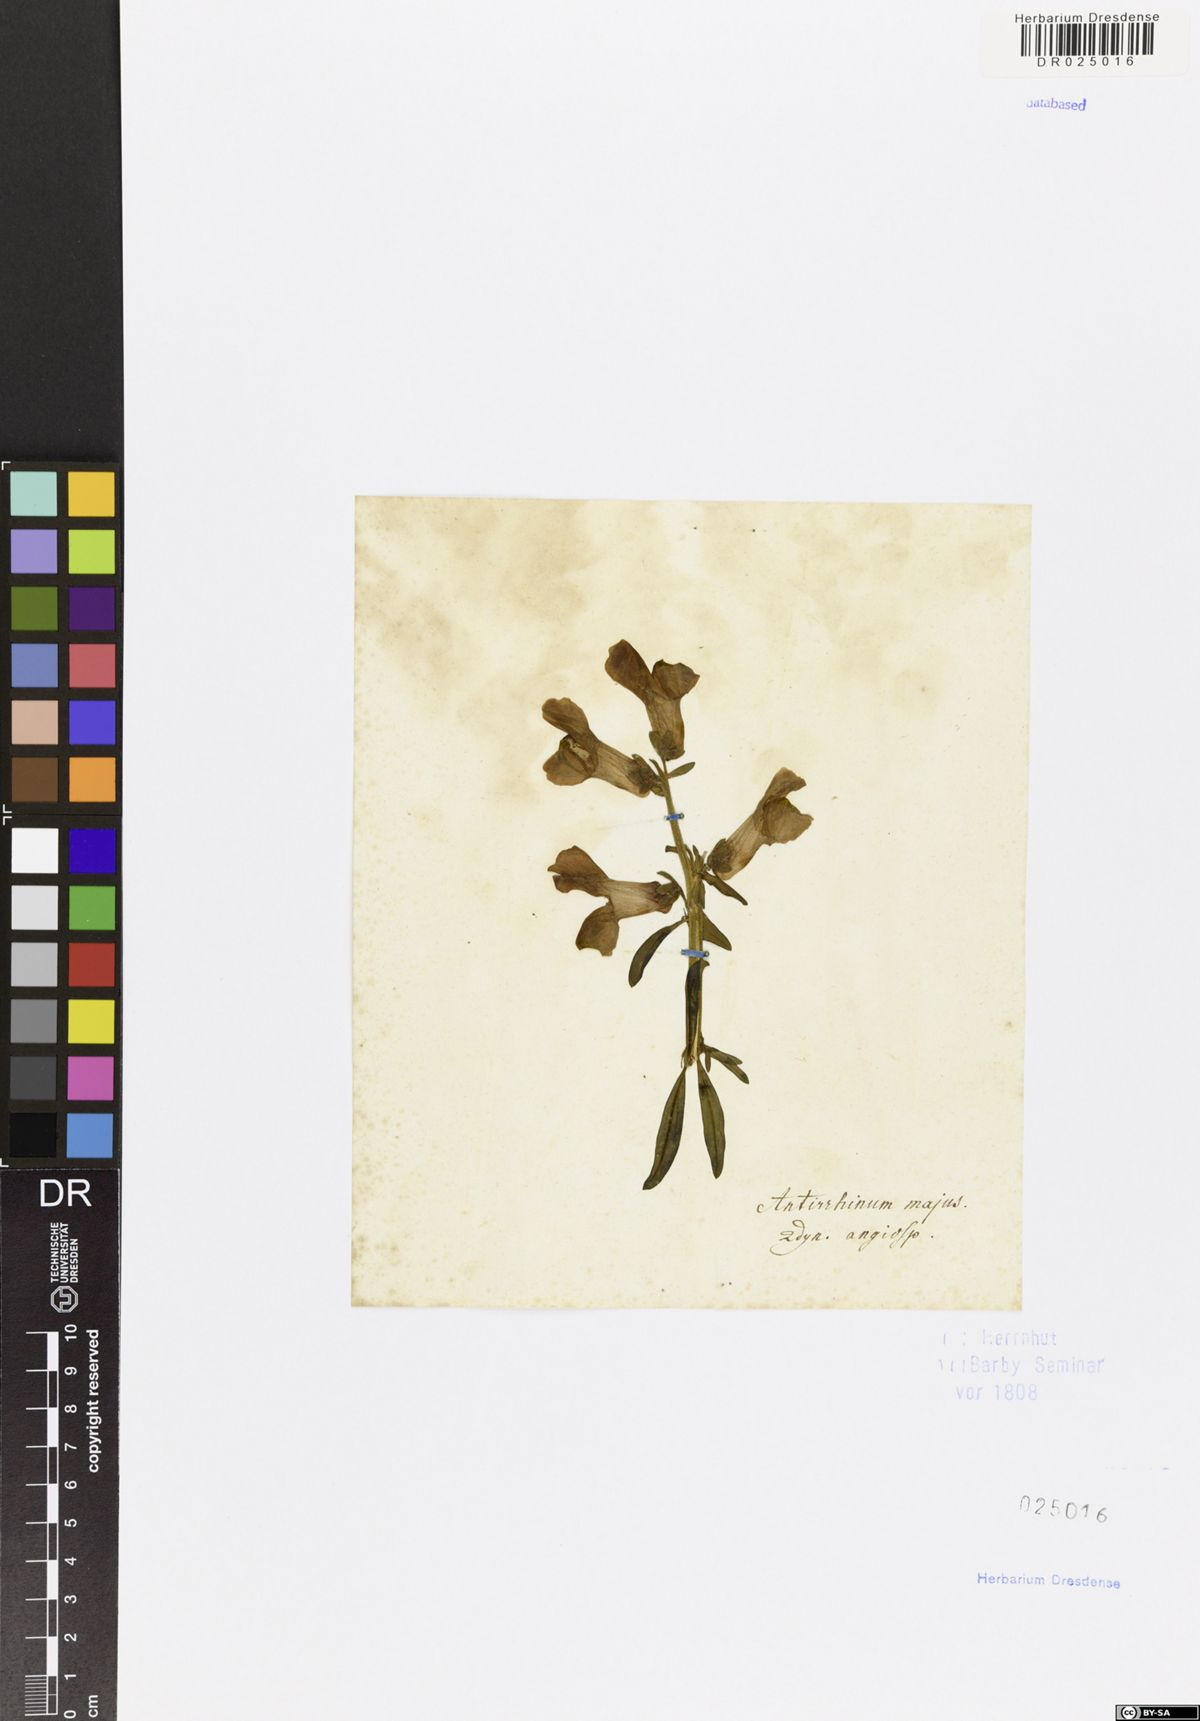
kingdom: Plantae
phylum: Tracheophyta
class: Magnoliopsida
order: Lamiales
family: Plantaginaceae
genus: Antirrhinum
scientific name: Antirrhinum majus
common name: Snapdragon
